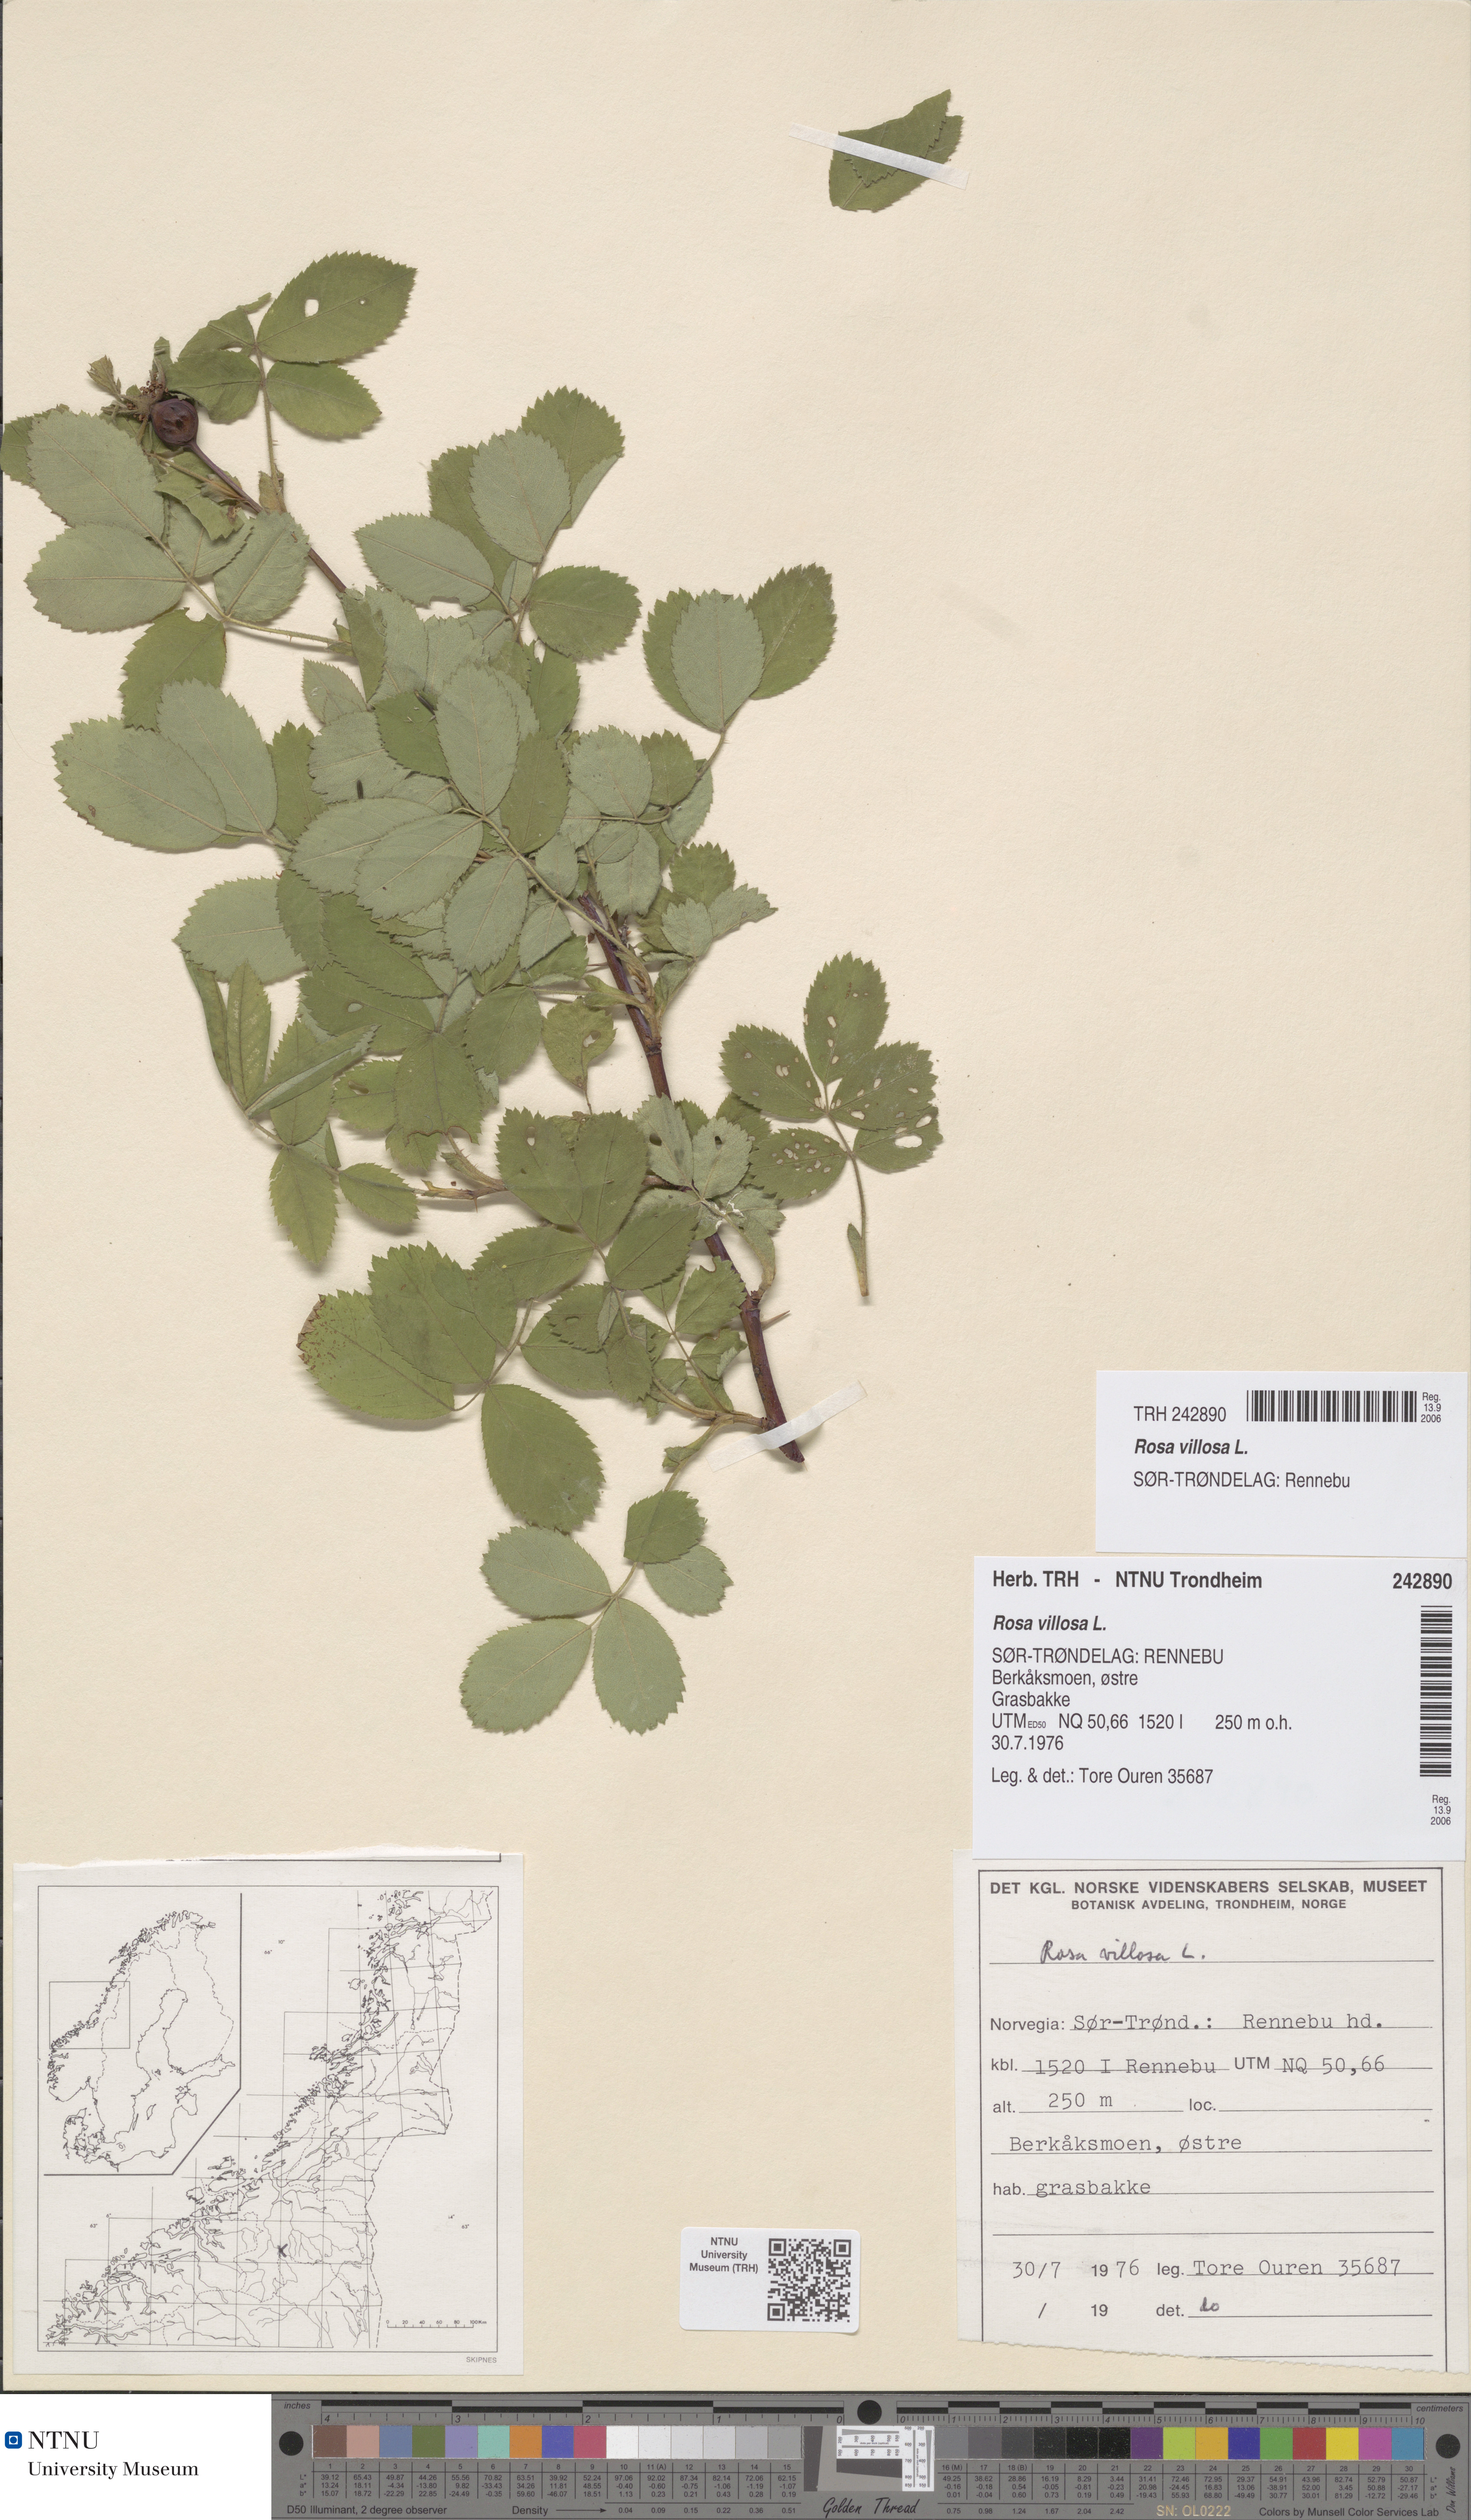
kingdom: Plantae
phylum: Tracheophyta
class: Magnoliopsida
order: Rosales
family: Rosaceae
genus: Rosa
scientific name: Rosa villosa
